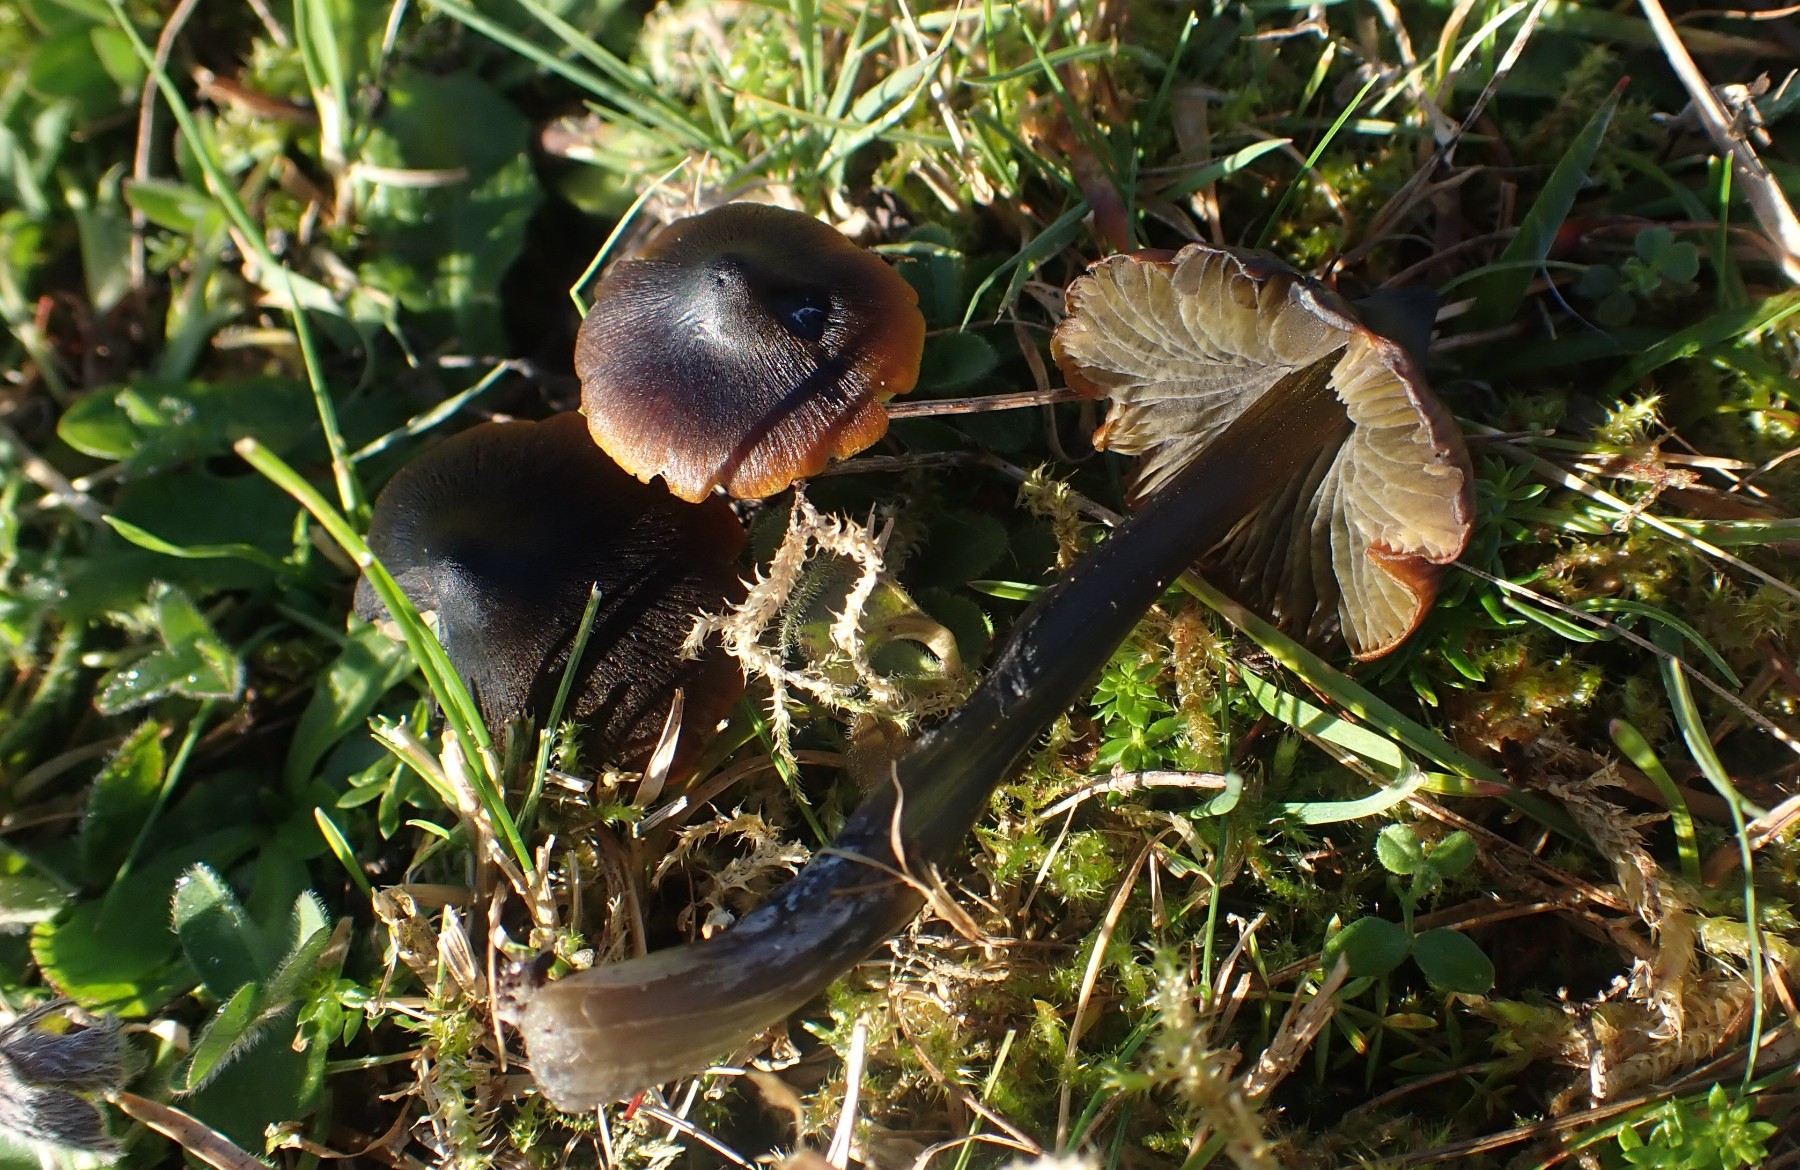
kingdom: Fungi
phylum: Basidiomycota
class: Agaricomycetes
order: Agaricales
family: Hygrophoraceae
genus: Hygrocybe
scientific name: Hygrocybe conica
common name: kegle-vokshat
